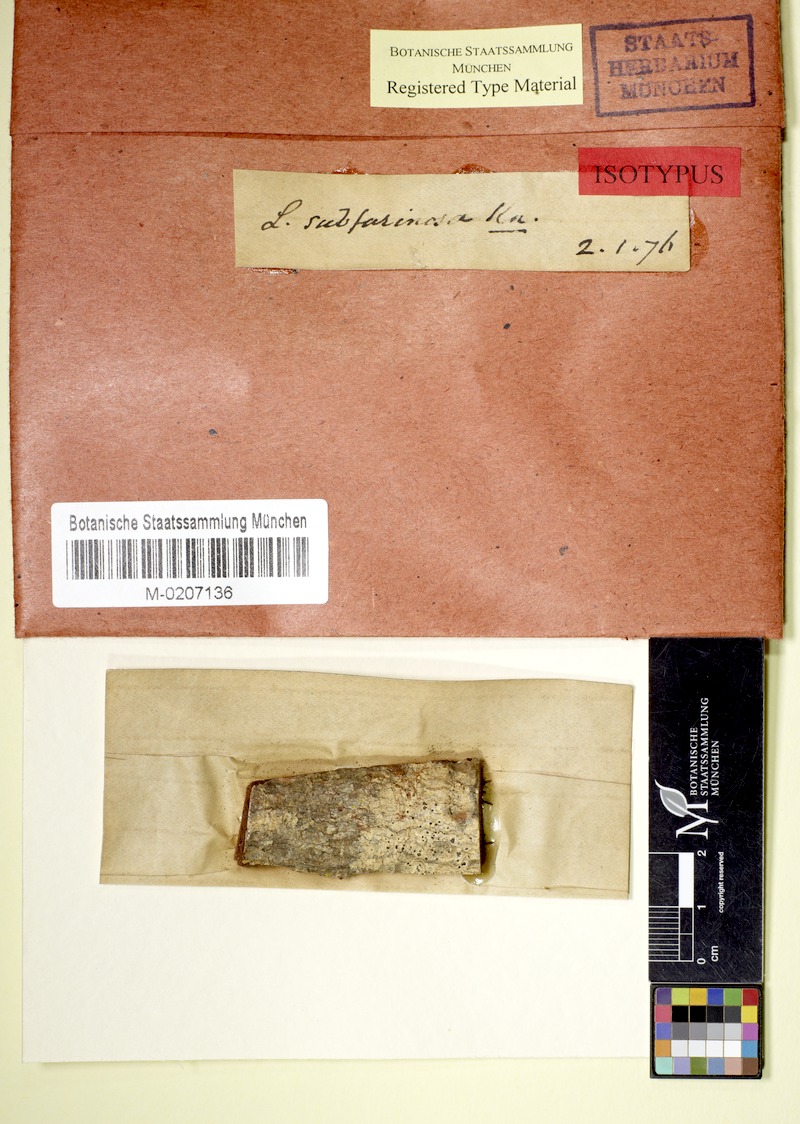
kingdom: Fungi
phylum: Ascomycota
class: Arthoniomycetes
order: Arthoniales
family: Roccellaceae
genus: Lecanactis
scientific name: Lecanactis subfarinosa
